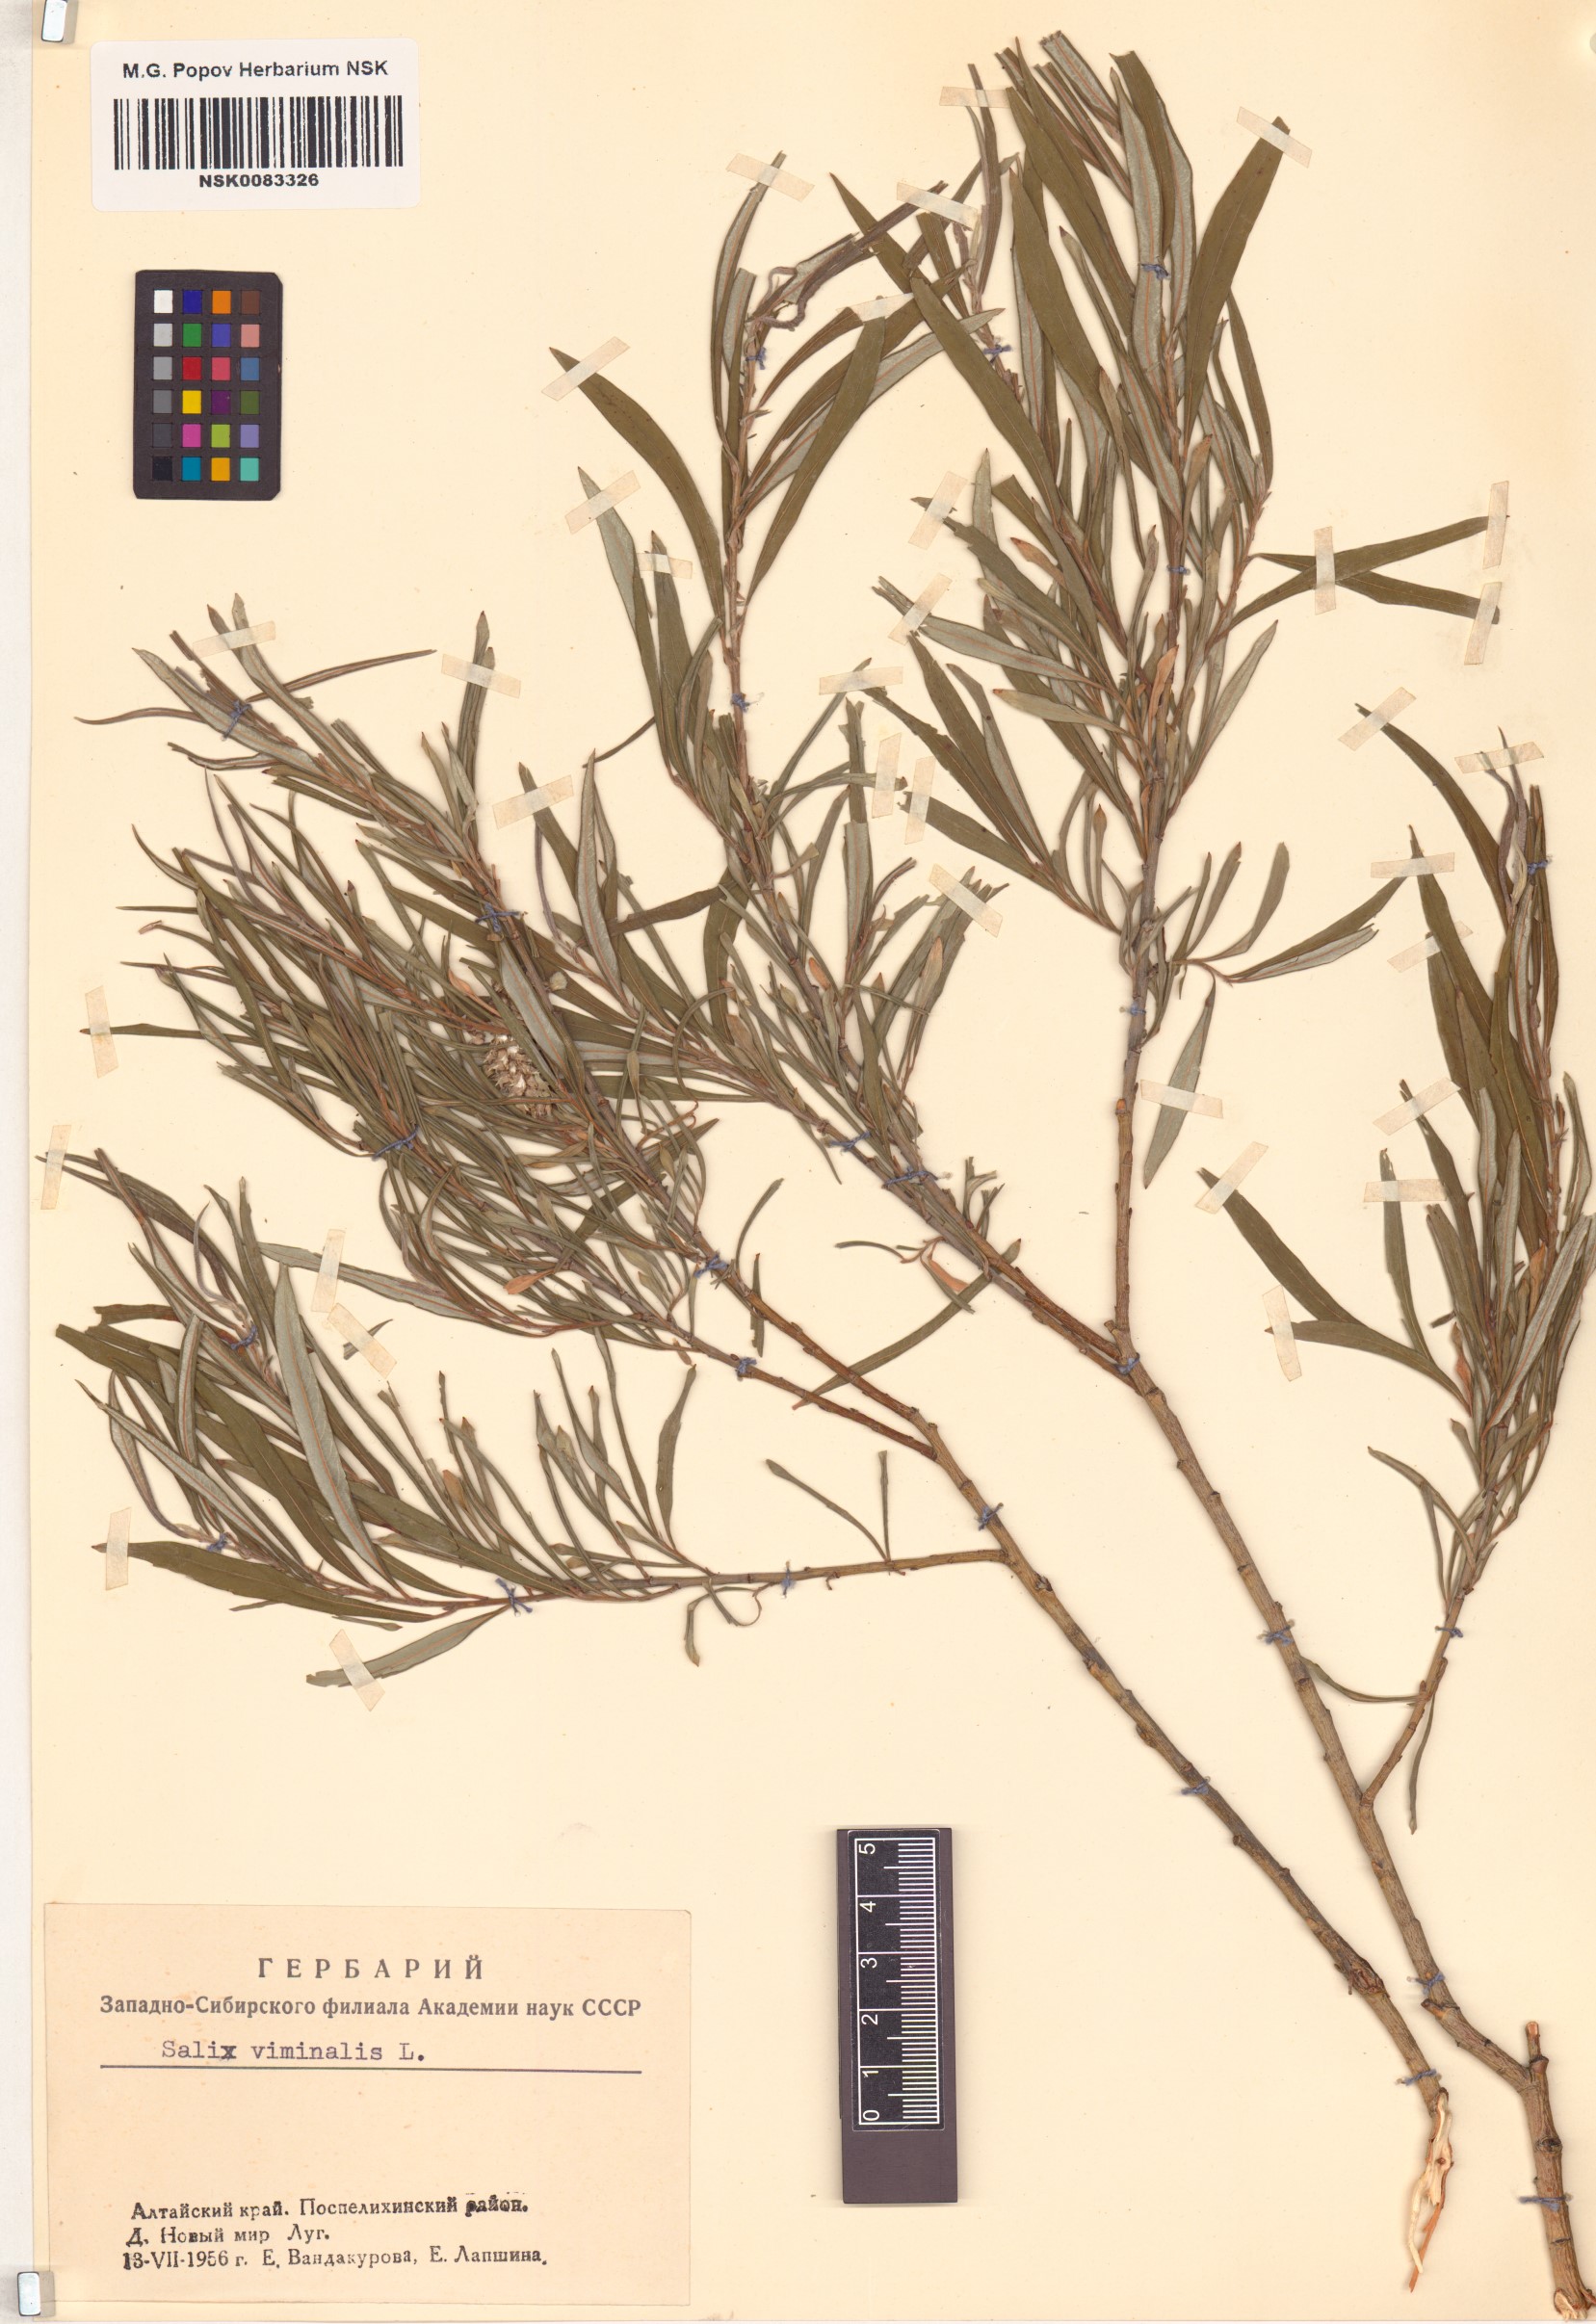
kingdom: Plantae
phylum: Tracheophyta
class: Magnoliopsida
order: Malpighiales
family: Salicaceae
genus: Salix
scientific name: Salix viminalis
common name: Osier
